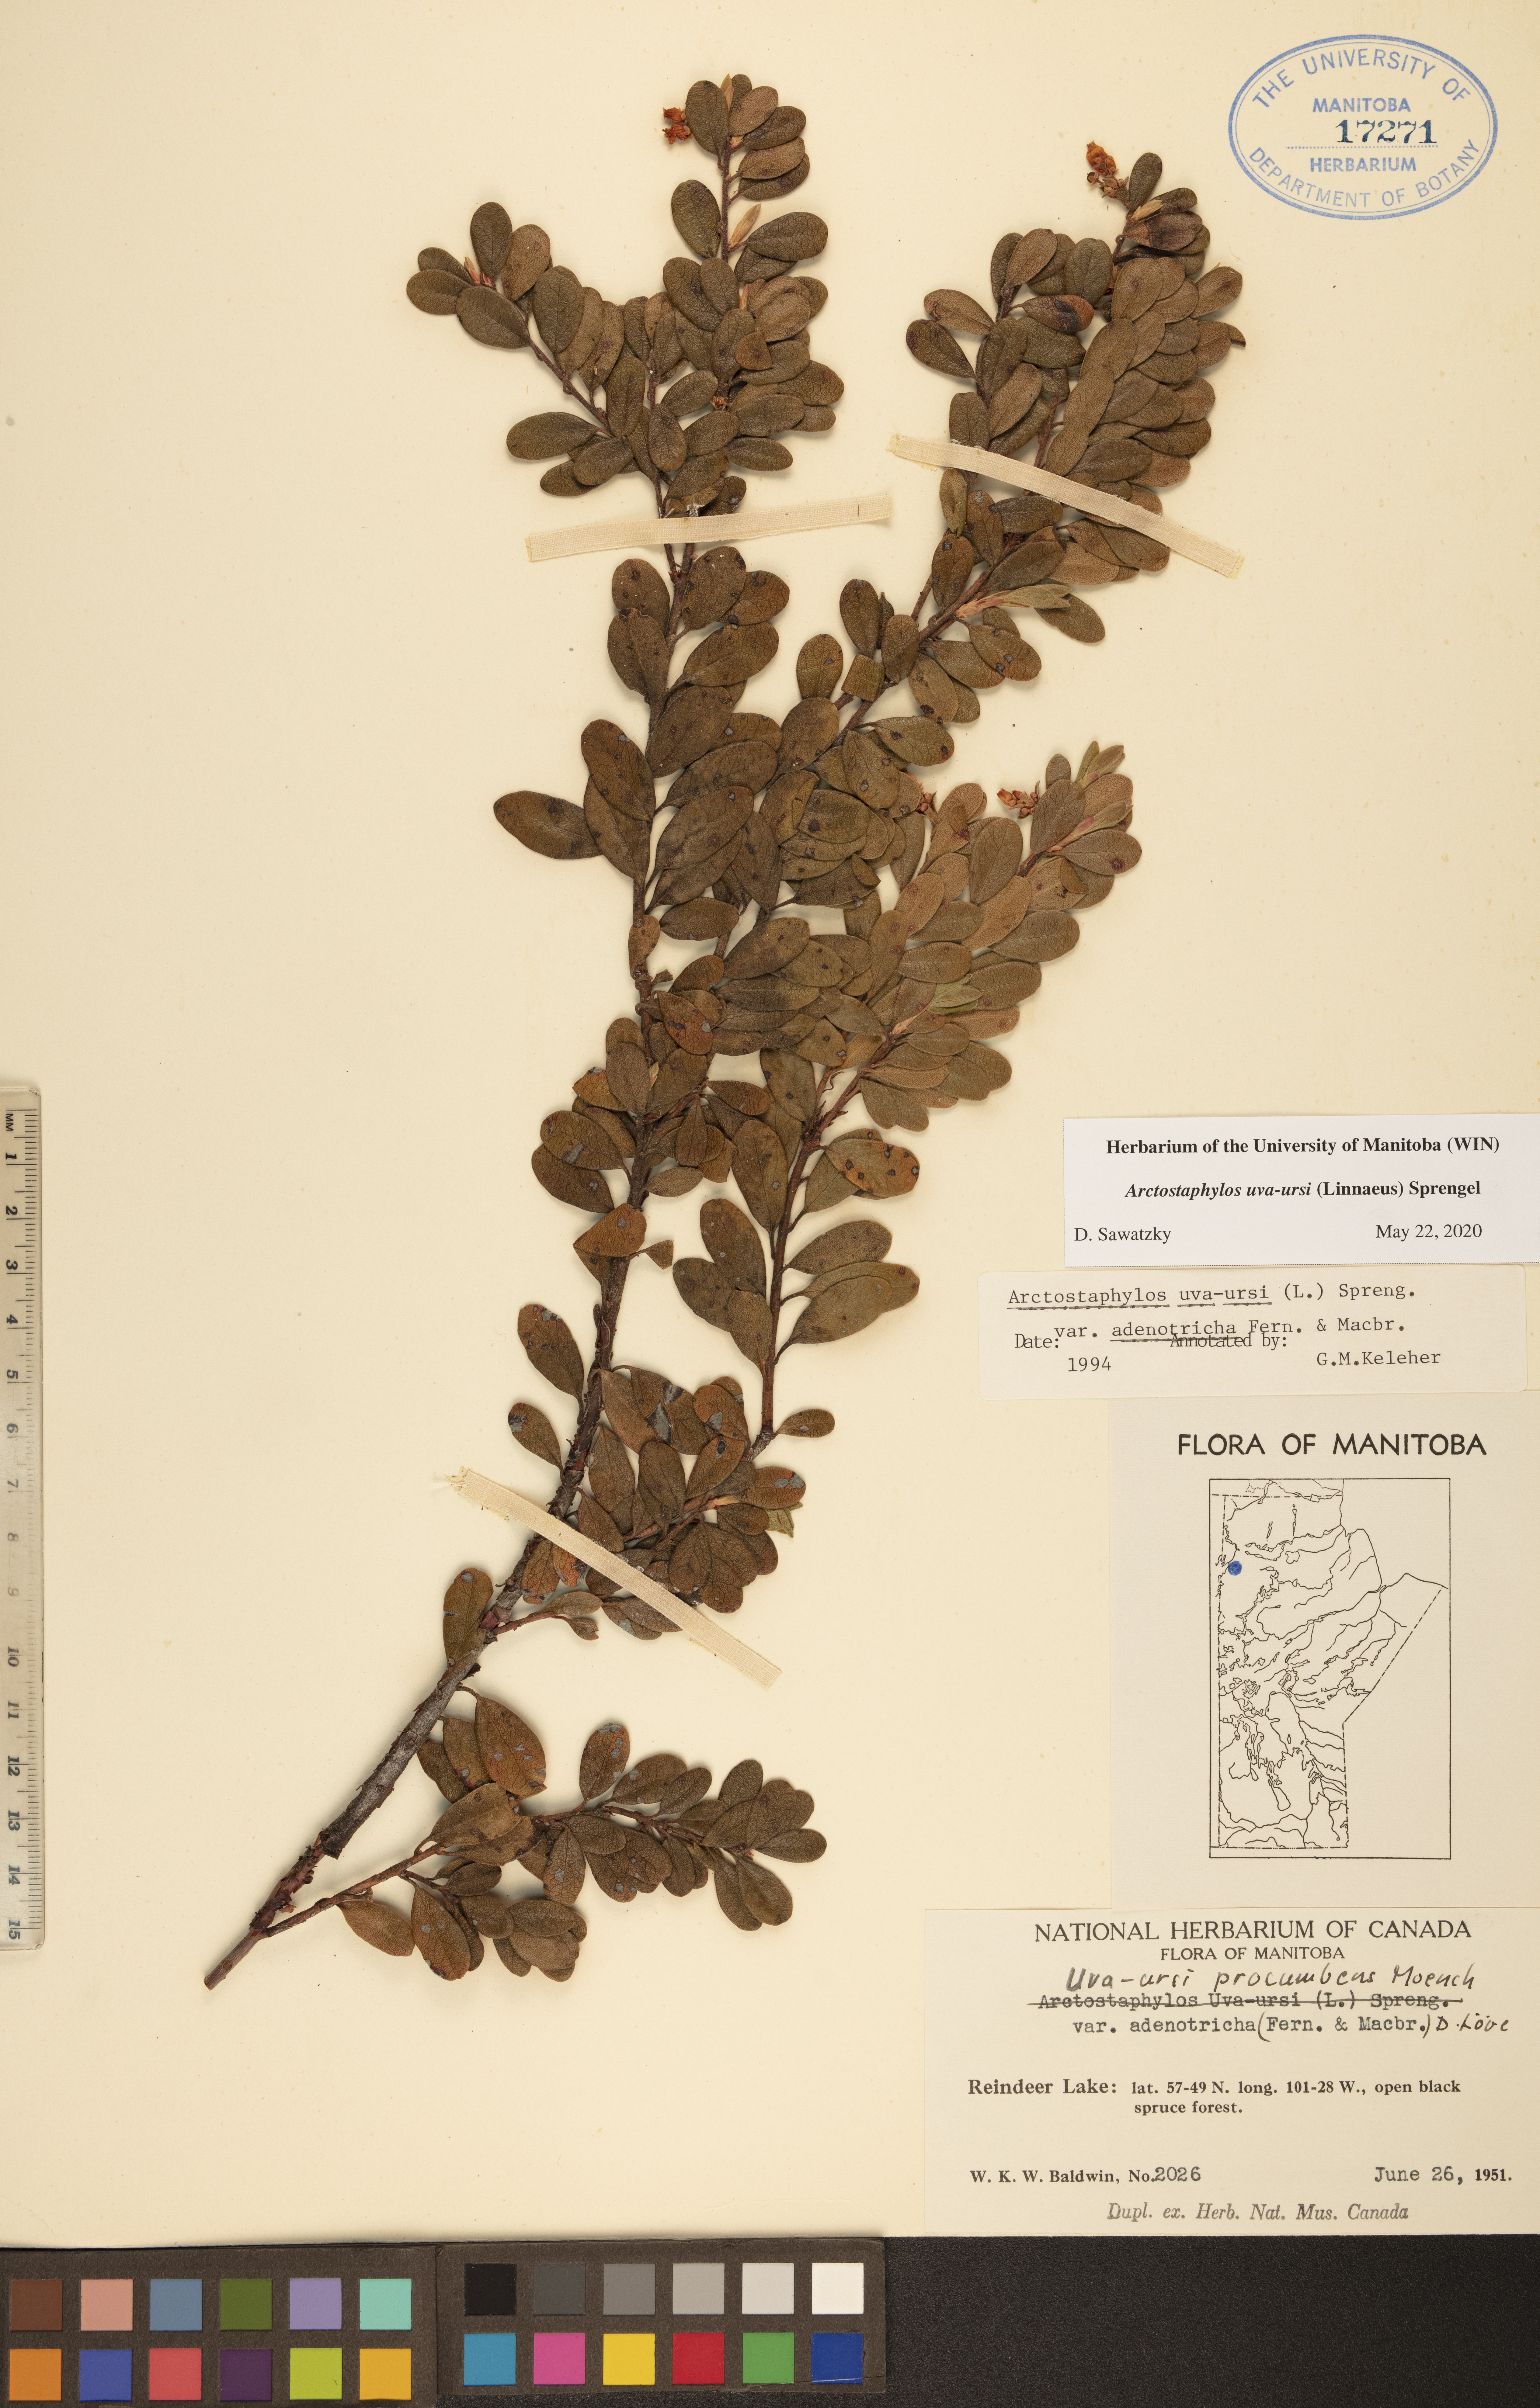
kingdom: Plantae
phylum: Tracheophyta
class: Magnoliopsida
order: Ericales
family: Ericaceae
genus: Arctostaphylos
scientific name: Arctostaphylos uva-ursi
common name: Bearberry
